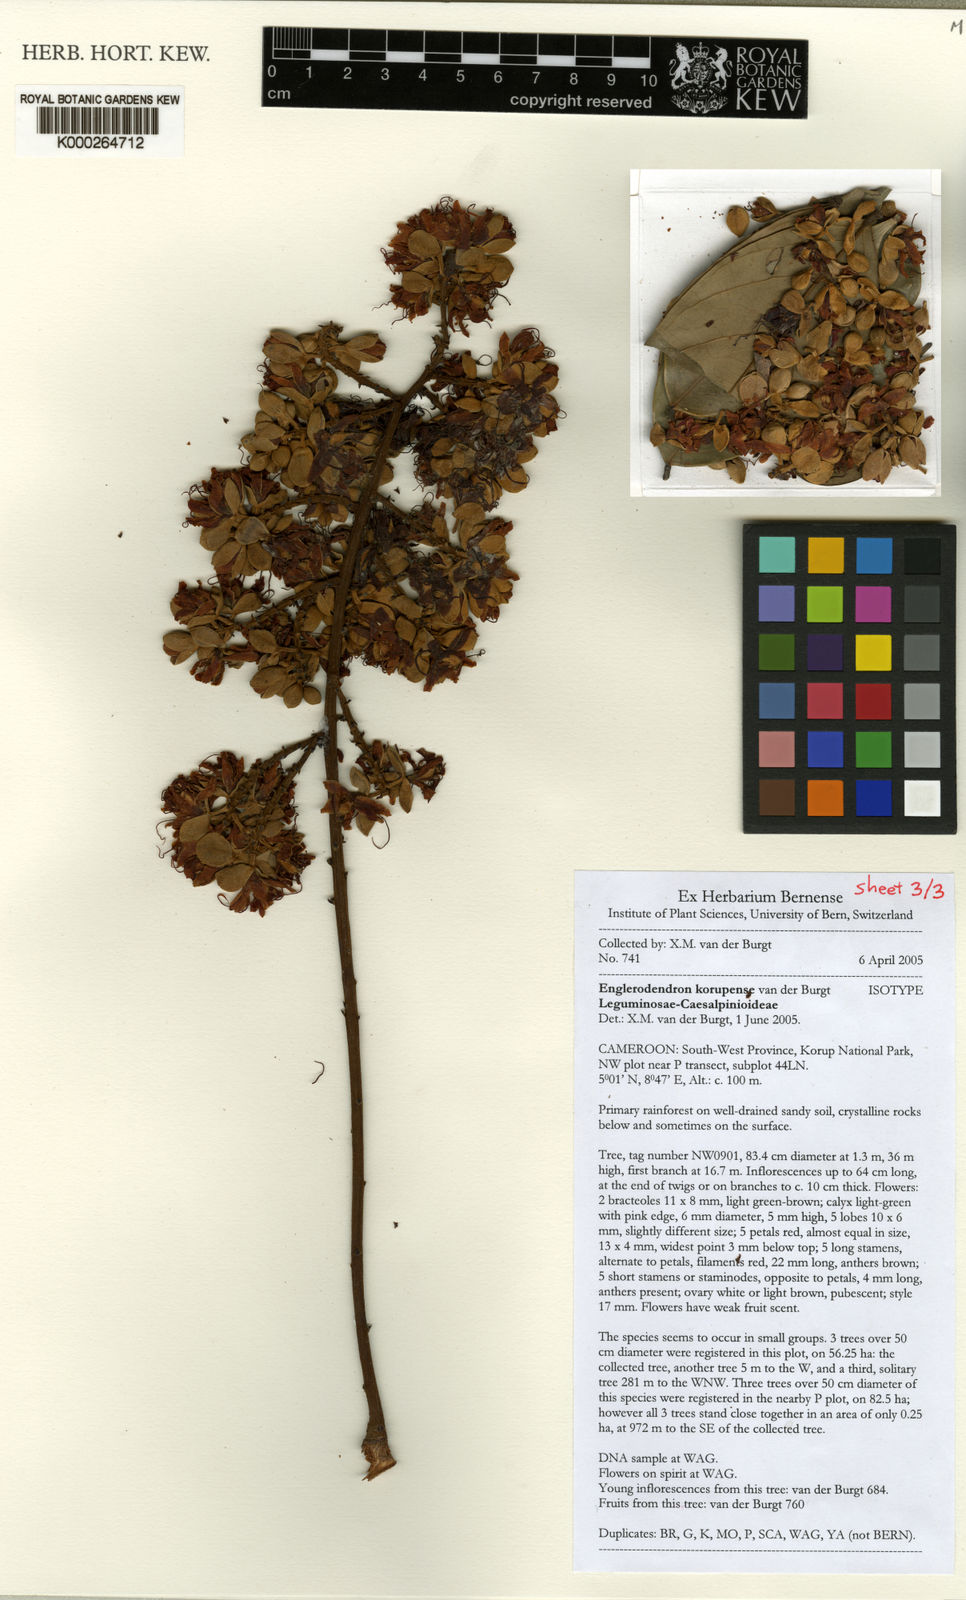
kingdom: Plantae
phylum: Tracheophyta
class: Magnoliopsida
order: Fabales
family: Fabaceae
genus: Englerodendron
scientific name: Englerodendron korupense
